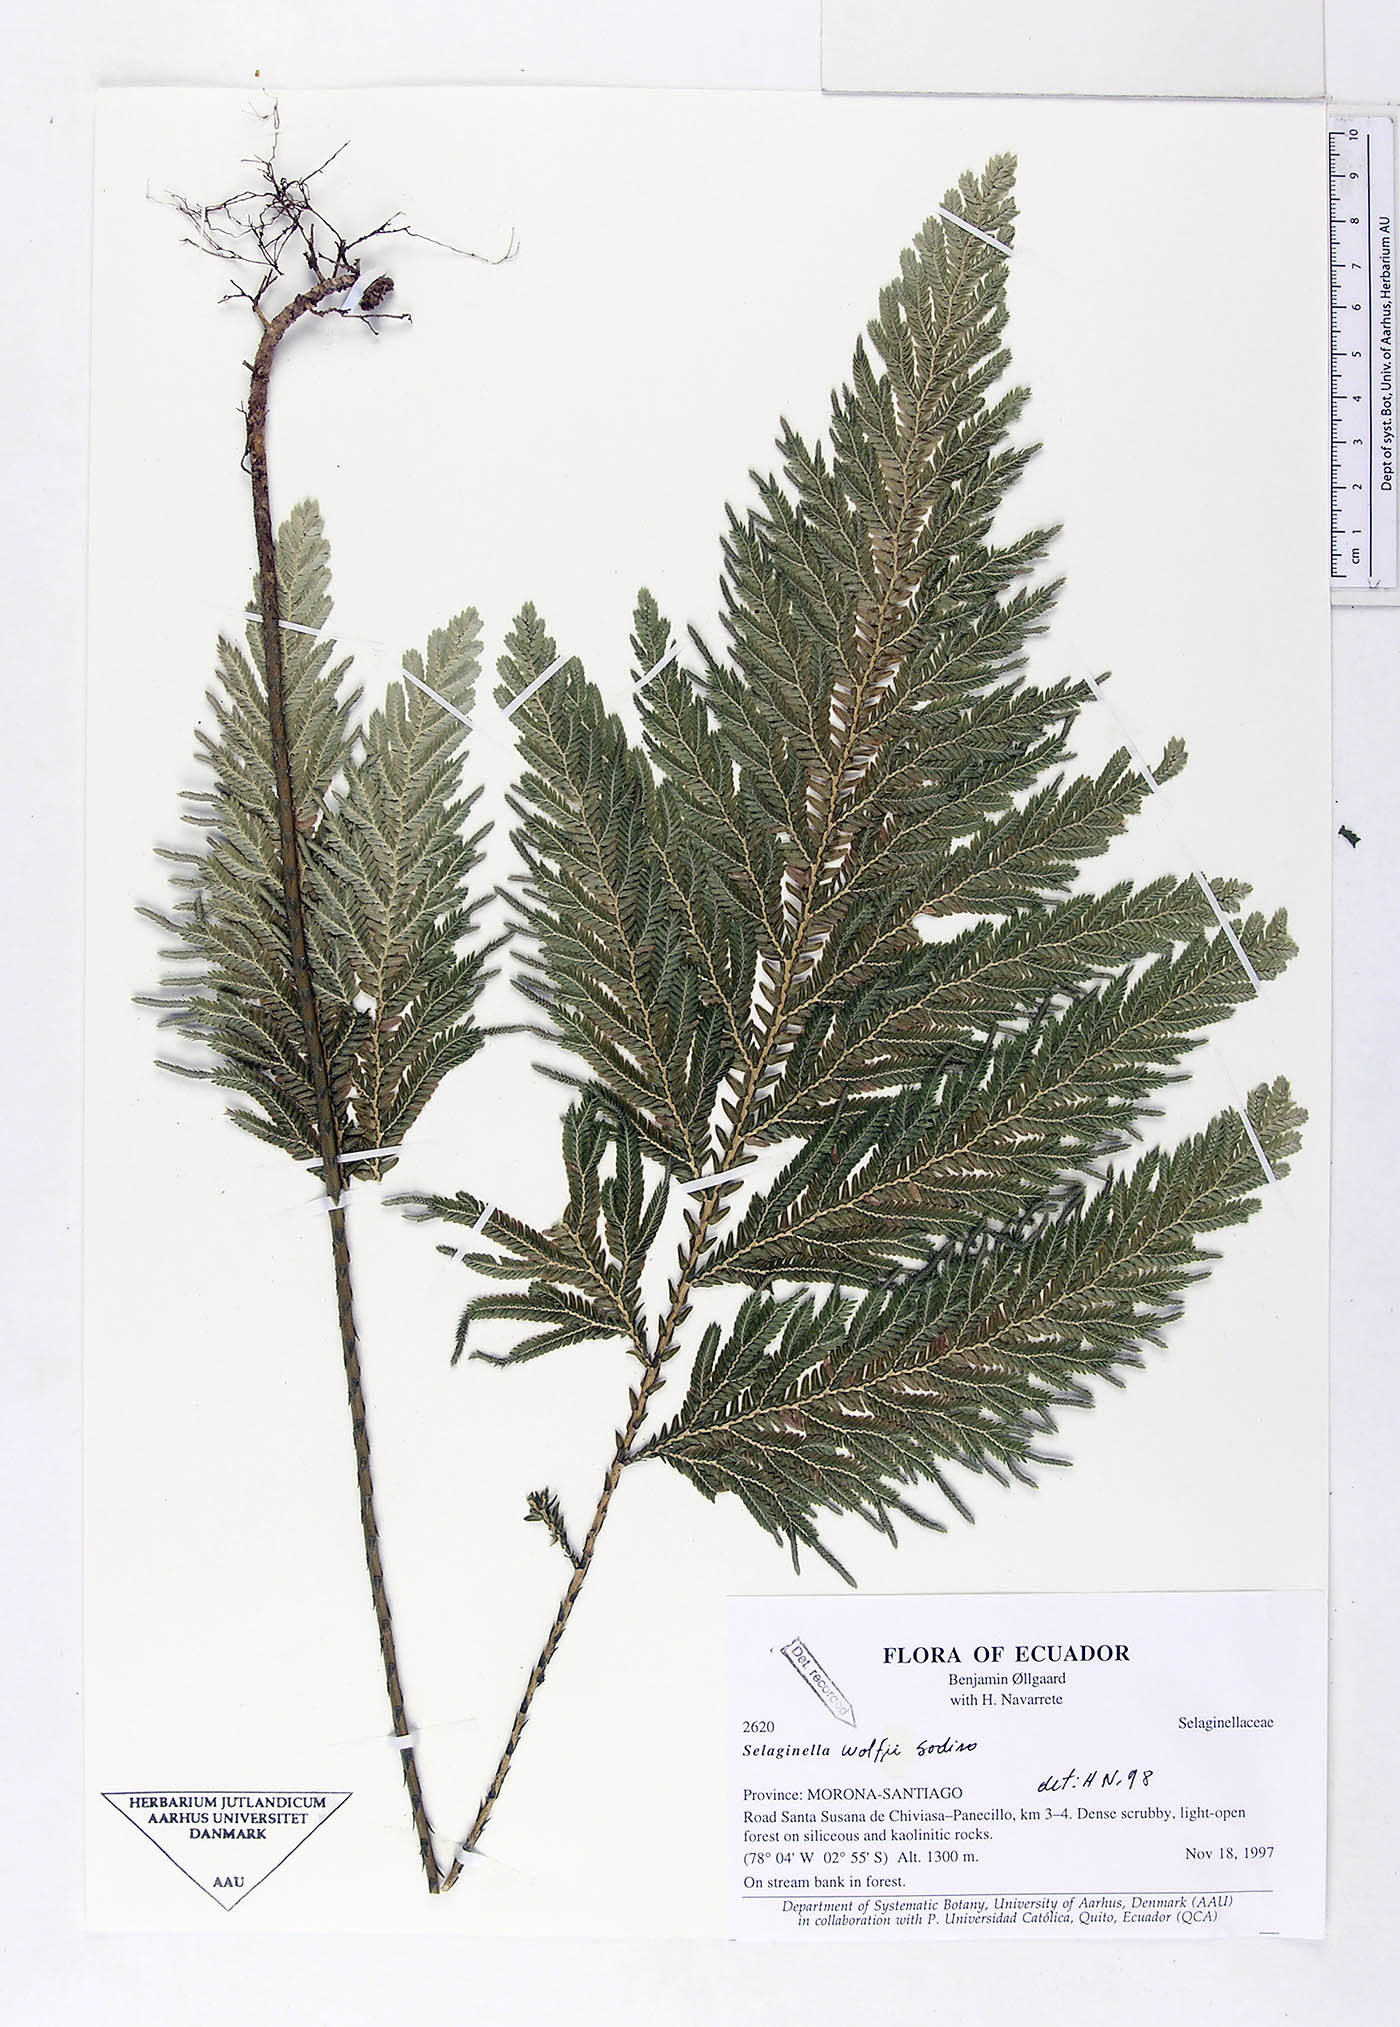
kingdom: Plantae
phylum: Tracheophyta
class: Lycopodiopsida
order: Selaginellales
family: Selaginellaceae
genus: Selaginella
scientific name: Selaginella wolffii
